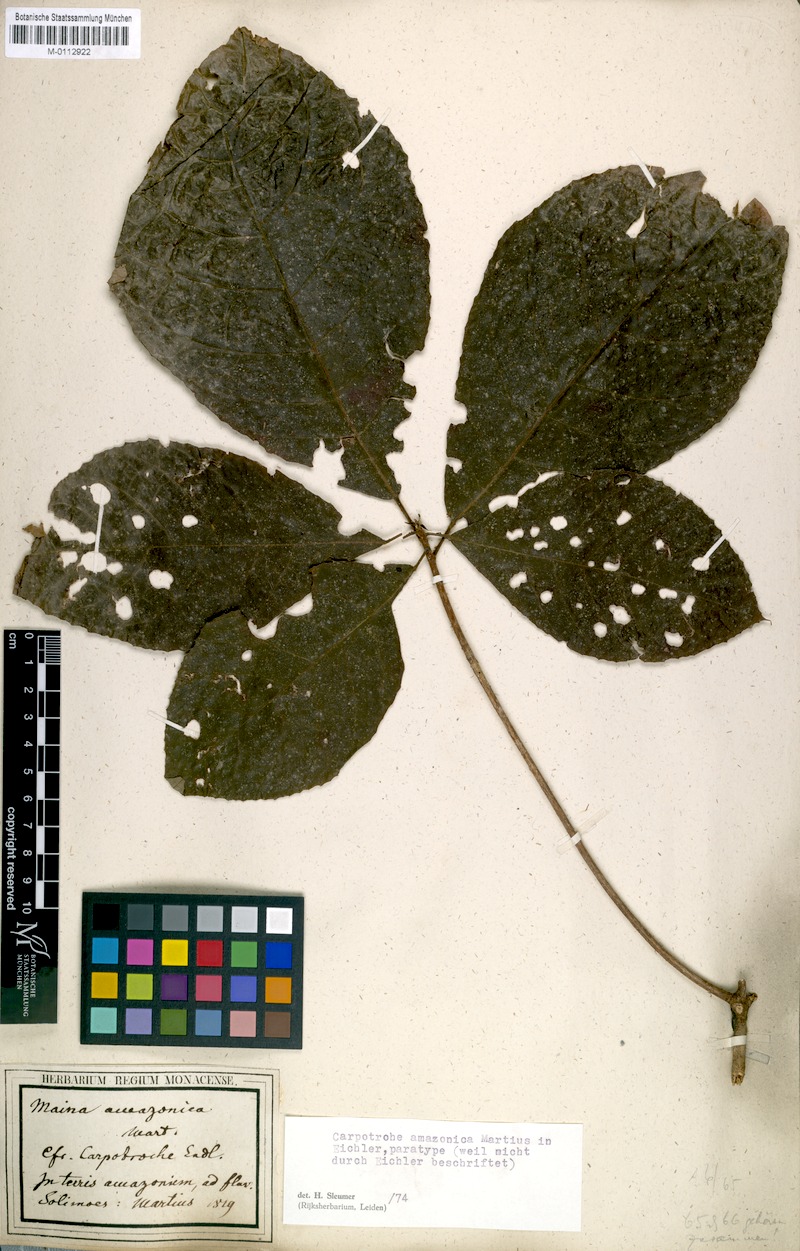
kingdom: Plantae
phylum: Tracheophyta
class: Magnoliopsida
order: Malpighiales
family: Achariaceae
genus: Carpotroche
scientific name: Carpotroche grandiflora
